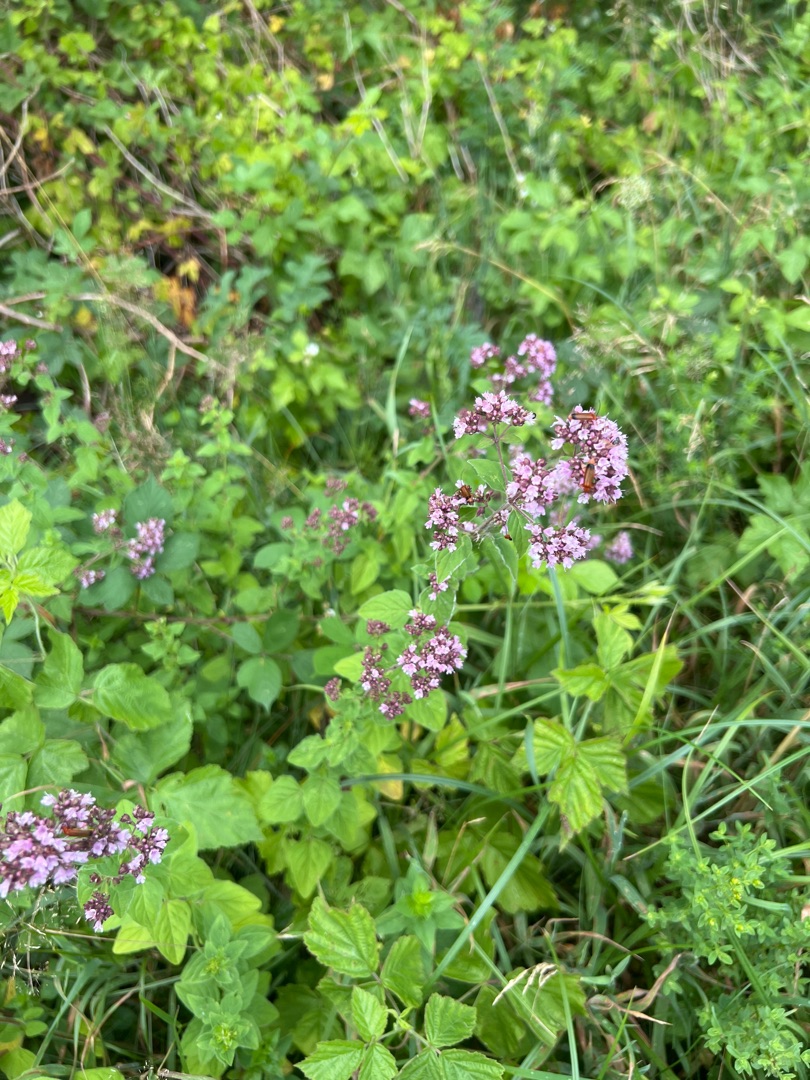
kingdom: Plantae
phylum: Tracheophyta
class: Magnoliopsida
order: Lamiales
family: Lamiaceae
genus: Origanum
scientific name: Origanum vulgare
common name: Merian
